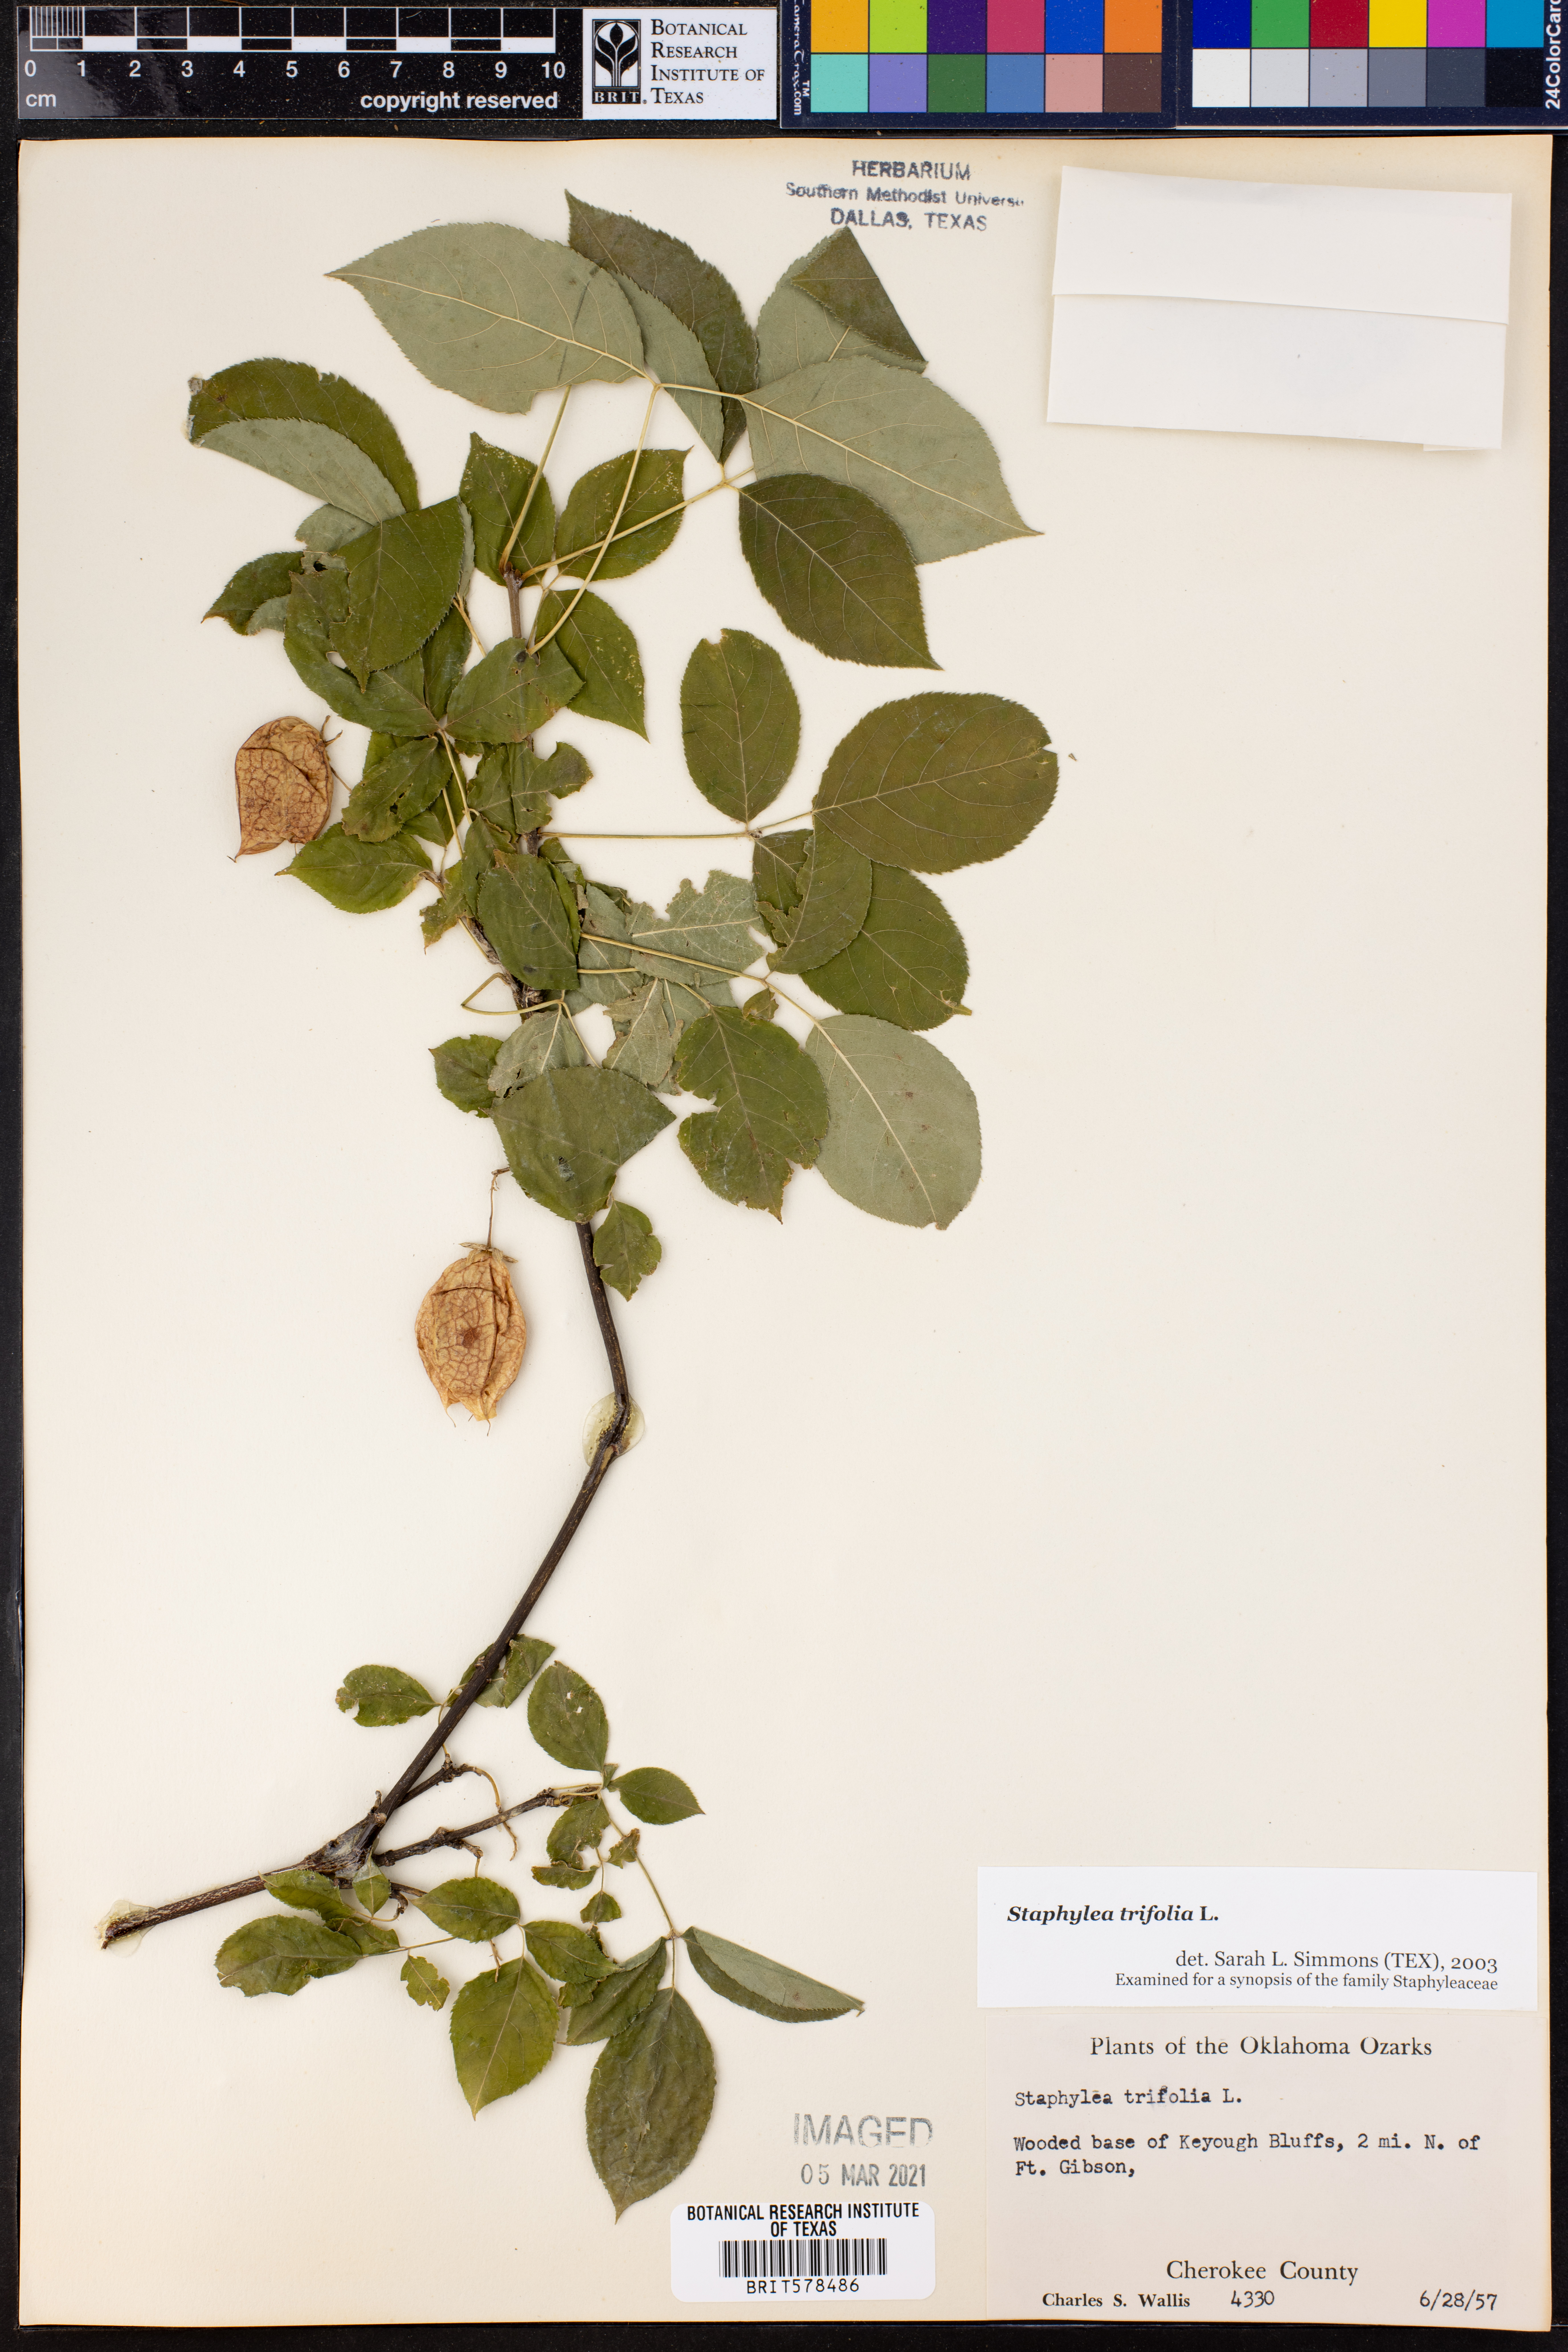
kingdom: Plantae
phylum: Tracheophyta
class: Magnoliopsida
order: Crossosomatales
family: Staphyleaceae
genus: Staphylea
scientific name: Staphylea trifolia
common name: American bladdernut
